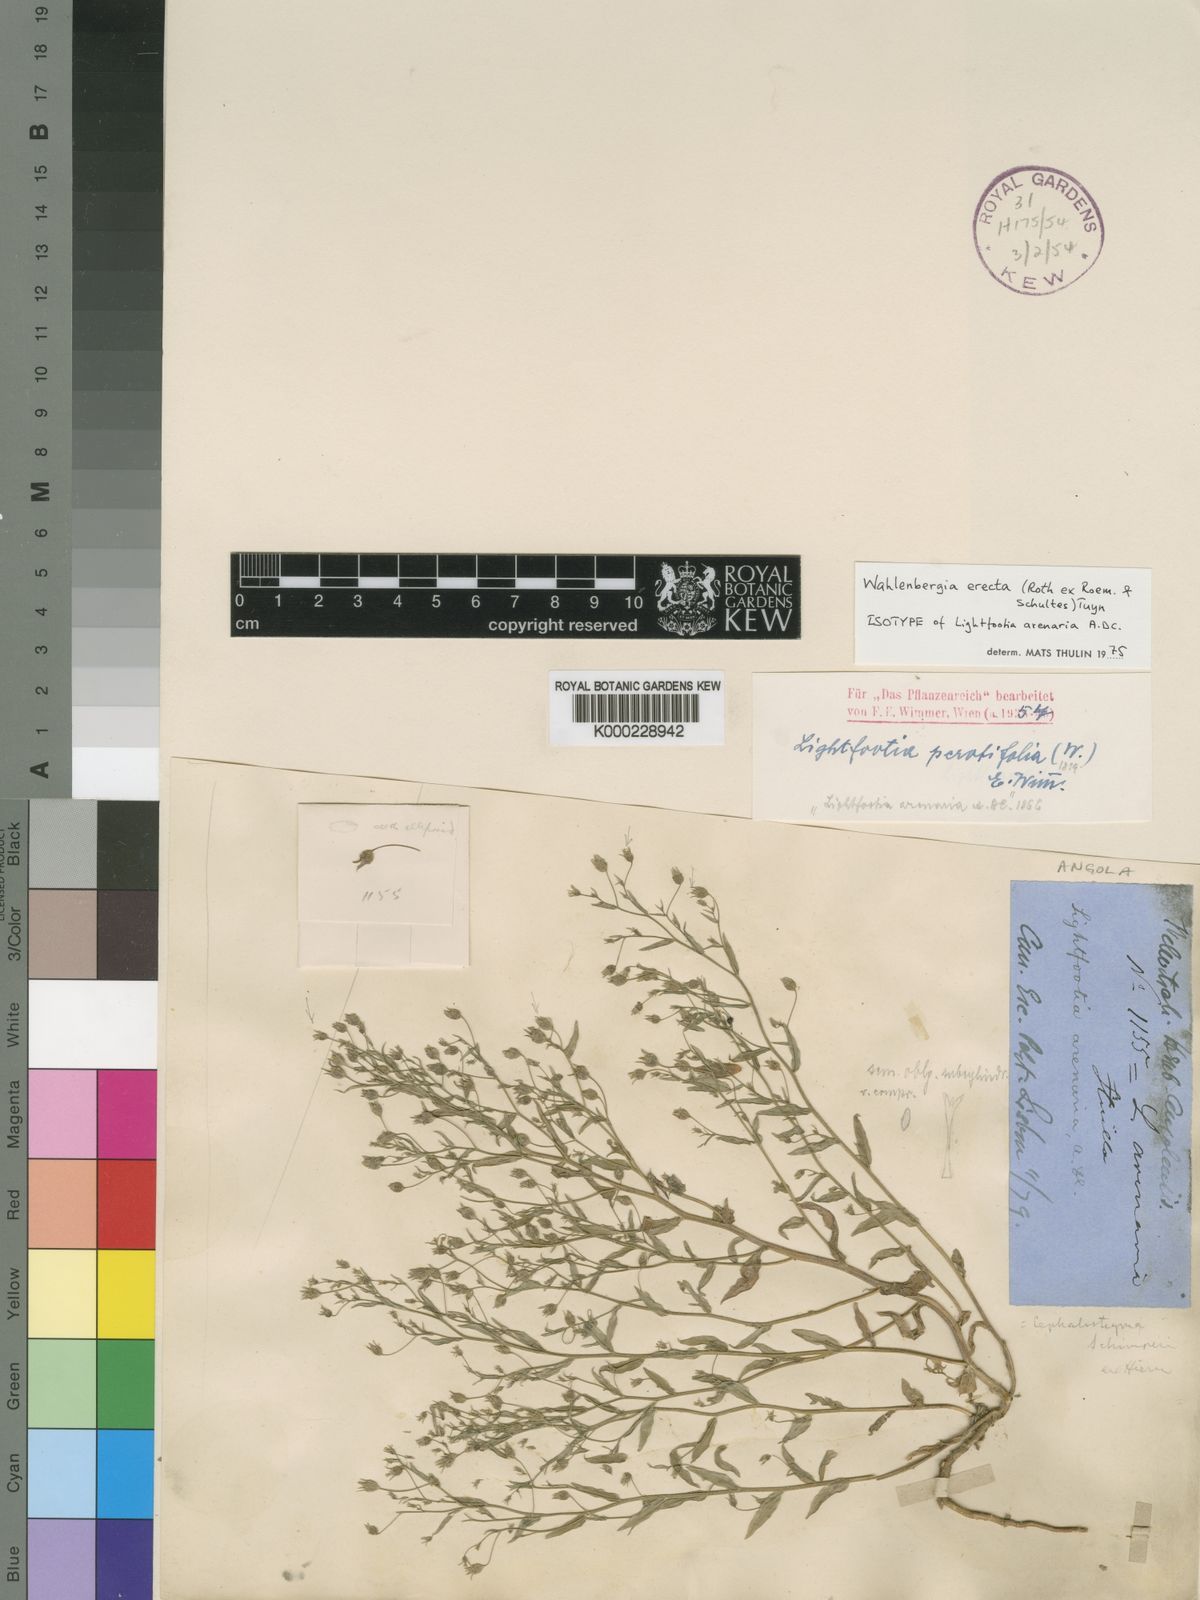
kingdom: Plantae
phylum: Tracheophyta
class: Magnoliopsida
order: Asterales
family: Campanulaceae
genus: Wahlenbergia
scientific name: Wahlenbergia erecta
